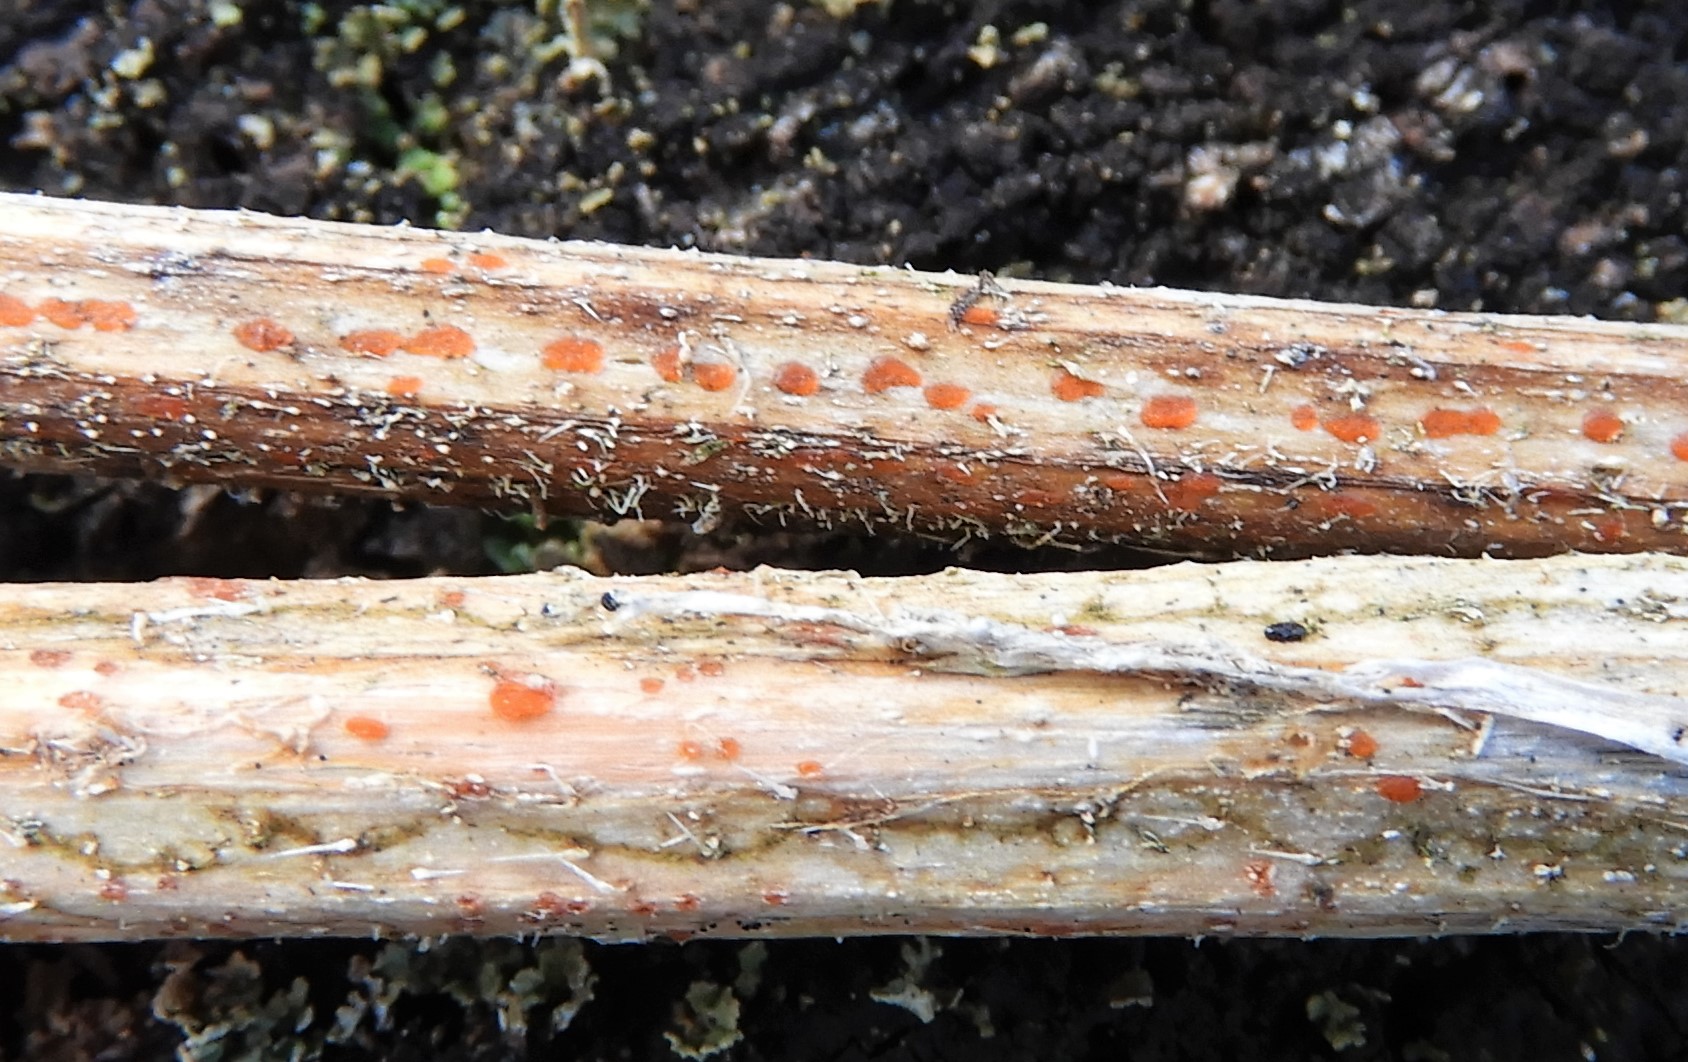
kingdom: Fungi
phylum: Ascomycota
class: Leotiomycetes
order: Helotiales
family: Calloriaceae
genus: Calloria
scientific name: Calloria urticae
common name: nælde-orangeskive
